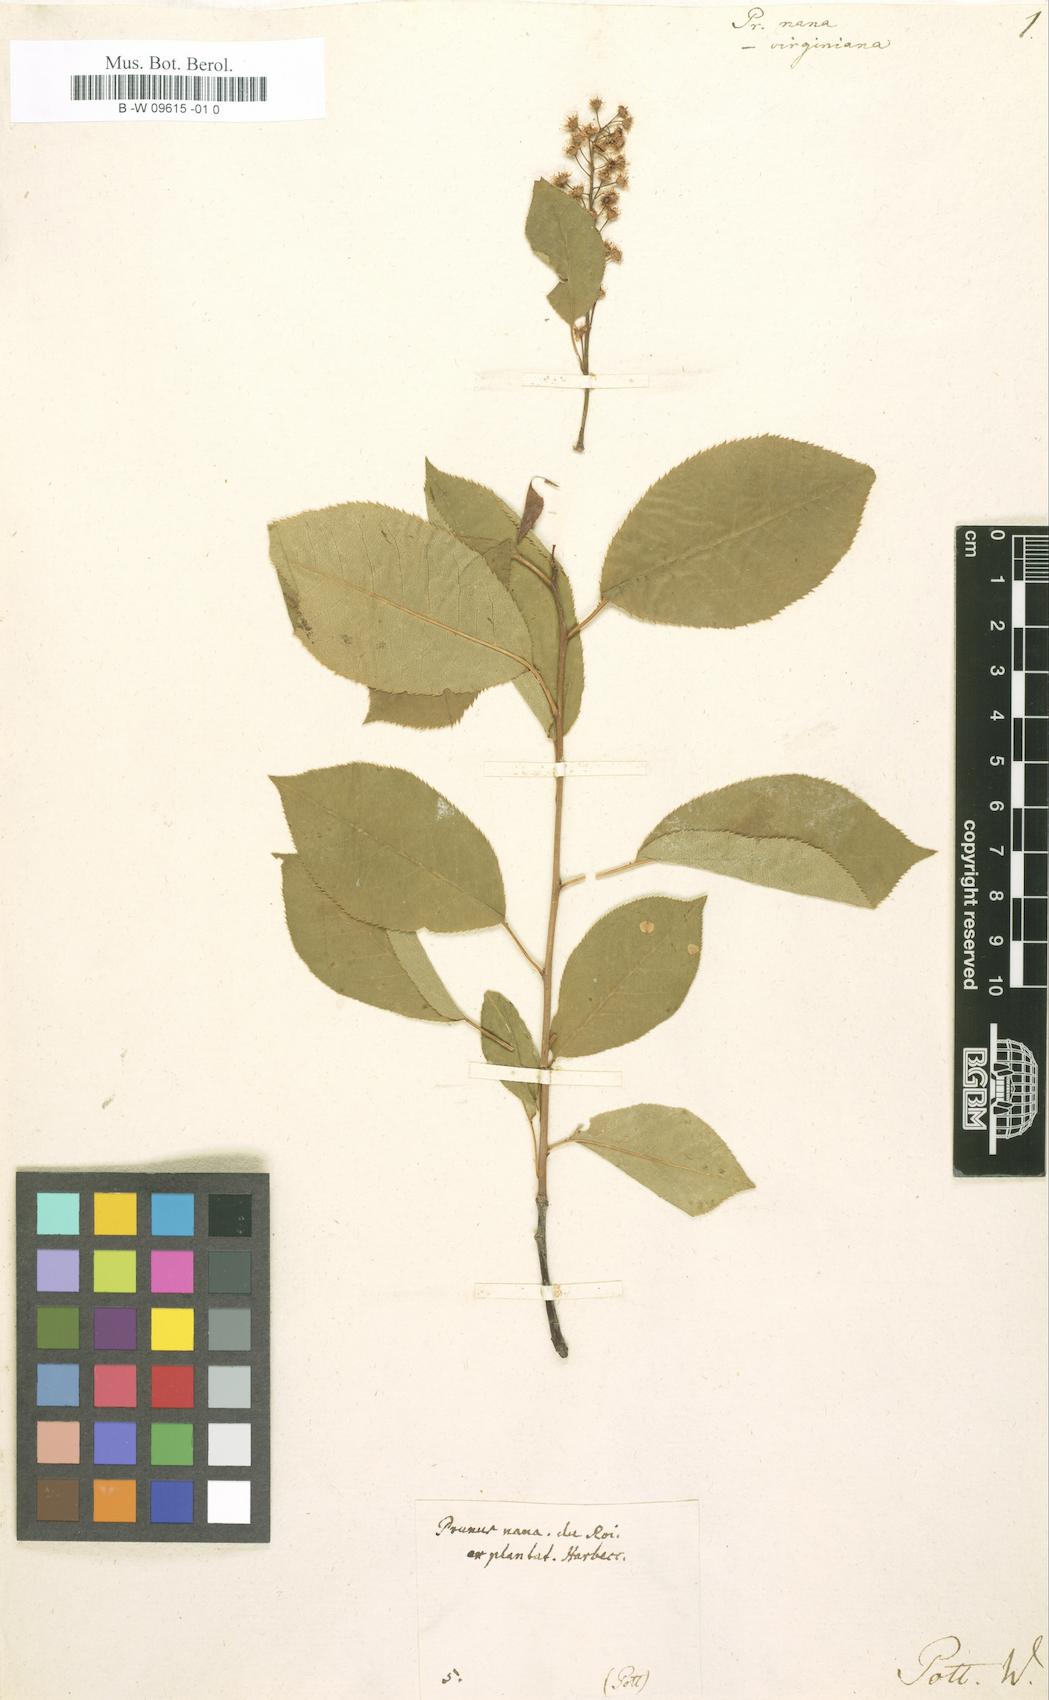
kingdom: Plantae
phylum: Tracheophyta
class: Magnoliopsida
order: Rosales
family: Rosaceae
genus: Prunus
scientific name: Prunus
